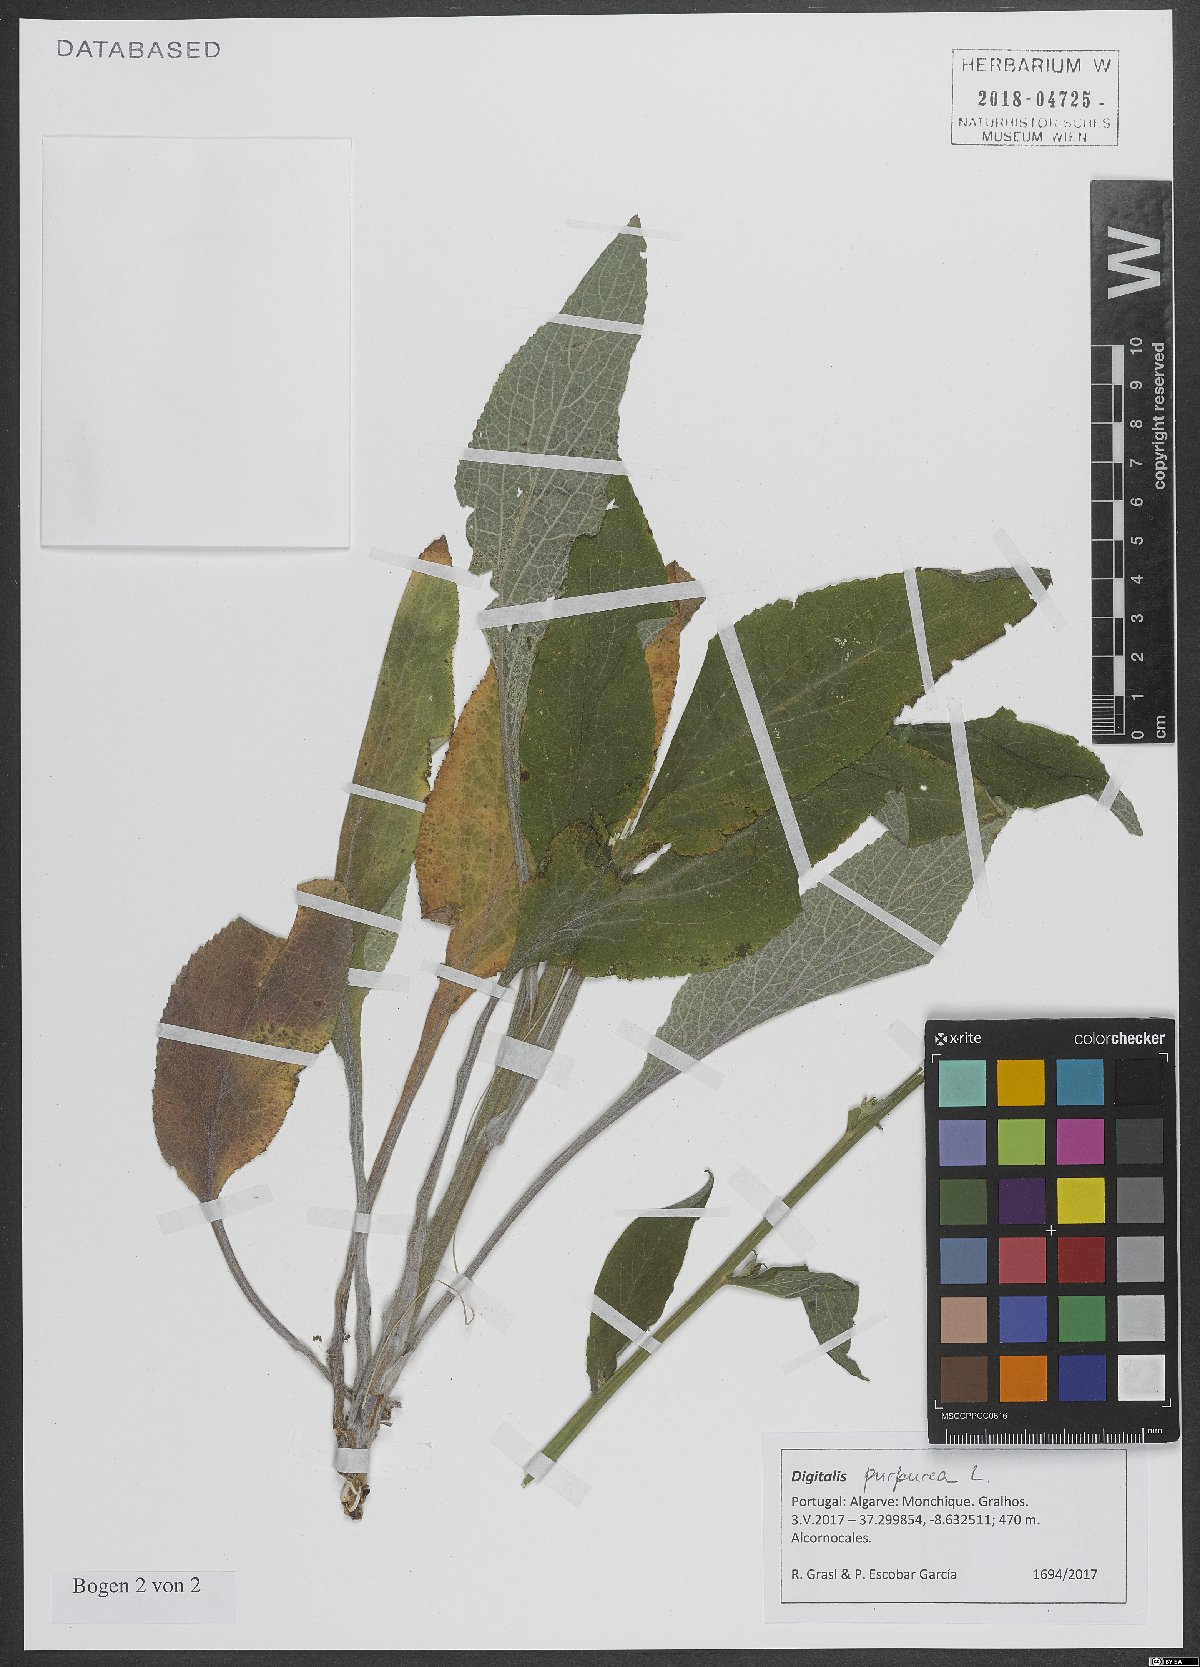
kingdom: Plantae
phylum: Tracheophyta
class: Magnoliopsida
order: Lamiales
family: Plantaginaceae
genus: Digitalis
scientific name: Digitalis purpurea
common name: Foxglove
